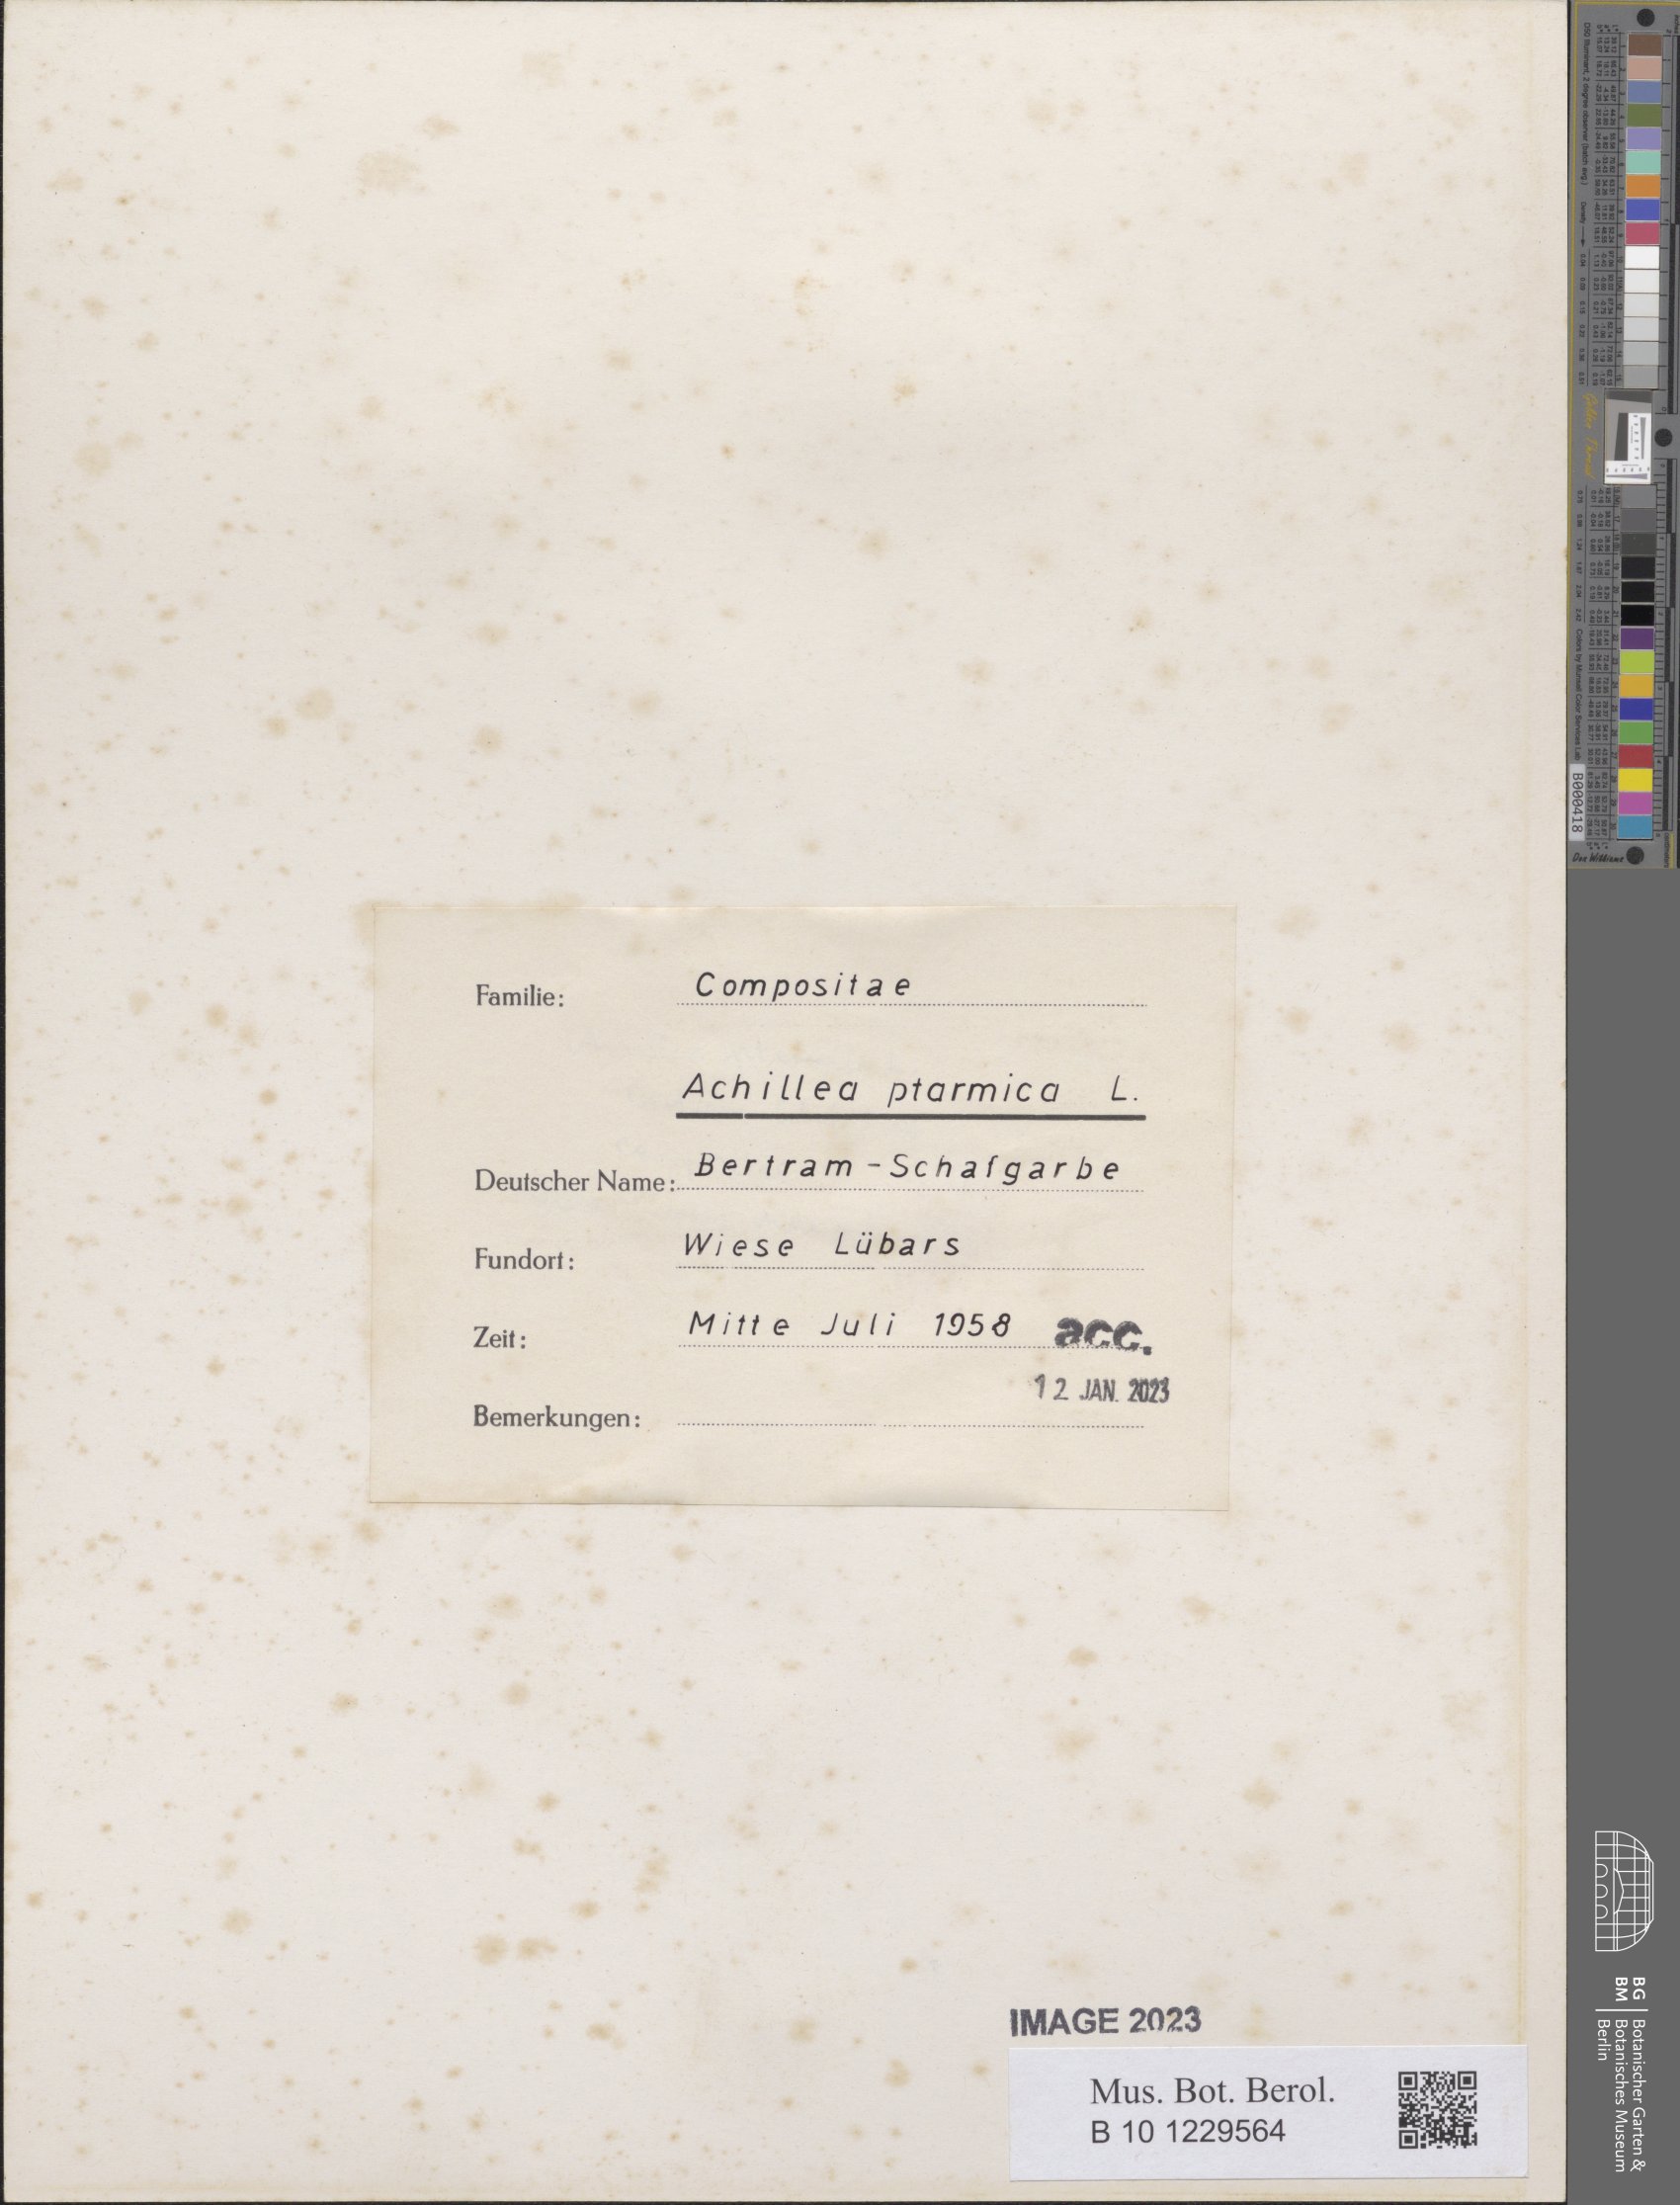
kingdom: Plantae
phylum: Tracheophyta
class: Magnoliopsida
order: Asterales
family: Asteraceae
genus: Achillea
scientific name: Achillea ptarmica
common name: Sneezeweed
